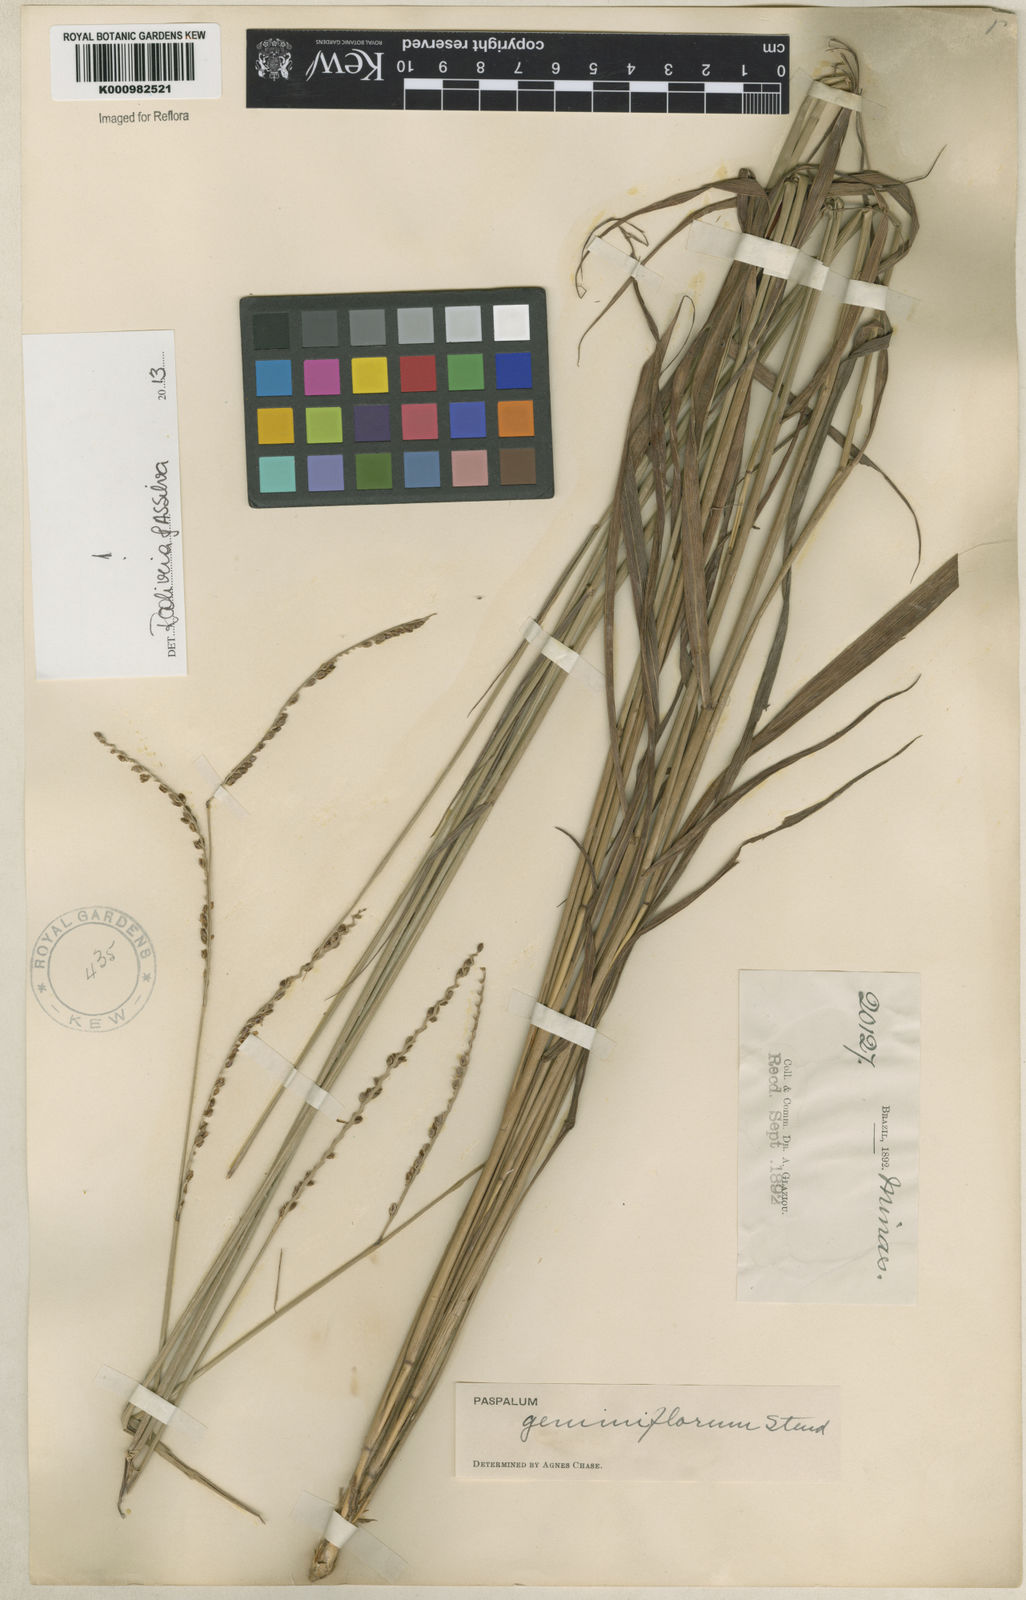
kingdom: Plantae
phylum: Tracheophyta
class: Liliopsida
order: Poales
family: Poaceae
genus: Paspalum
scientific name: Paspalum geminiflorum
